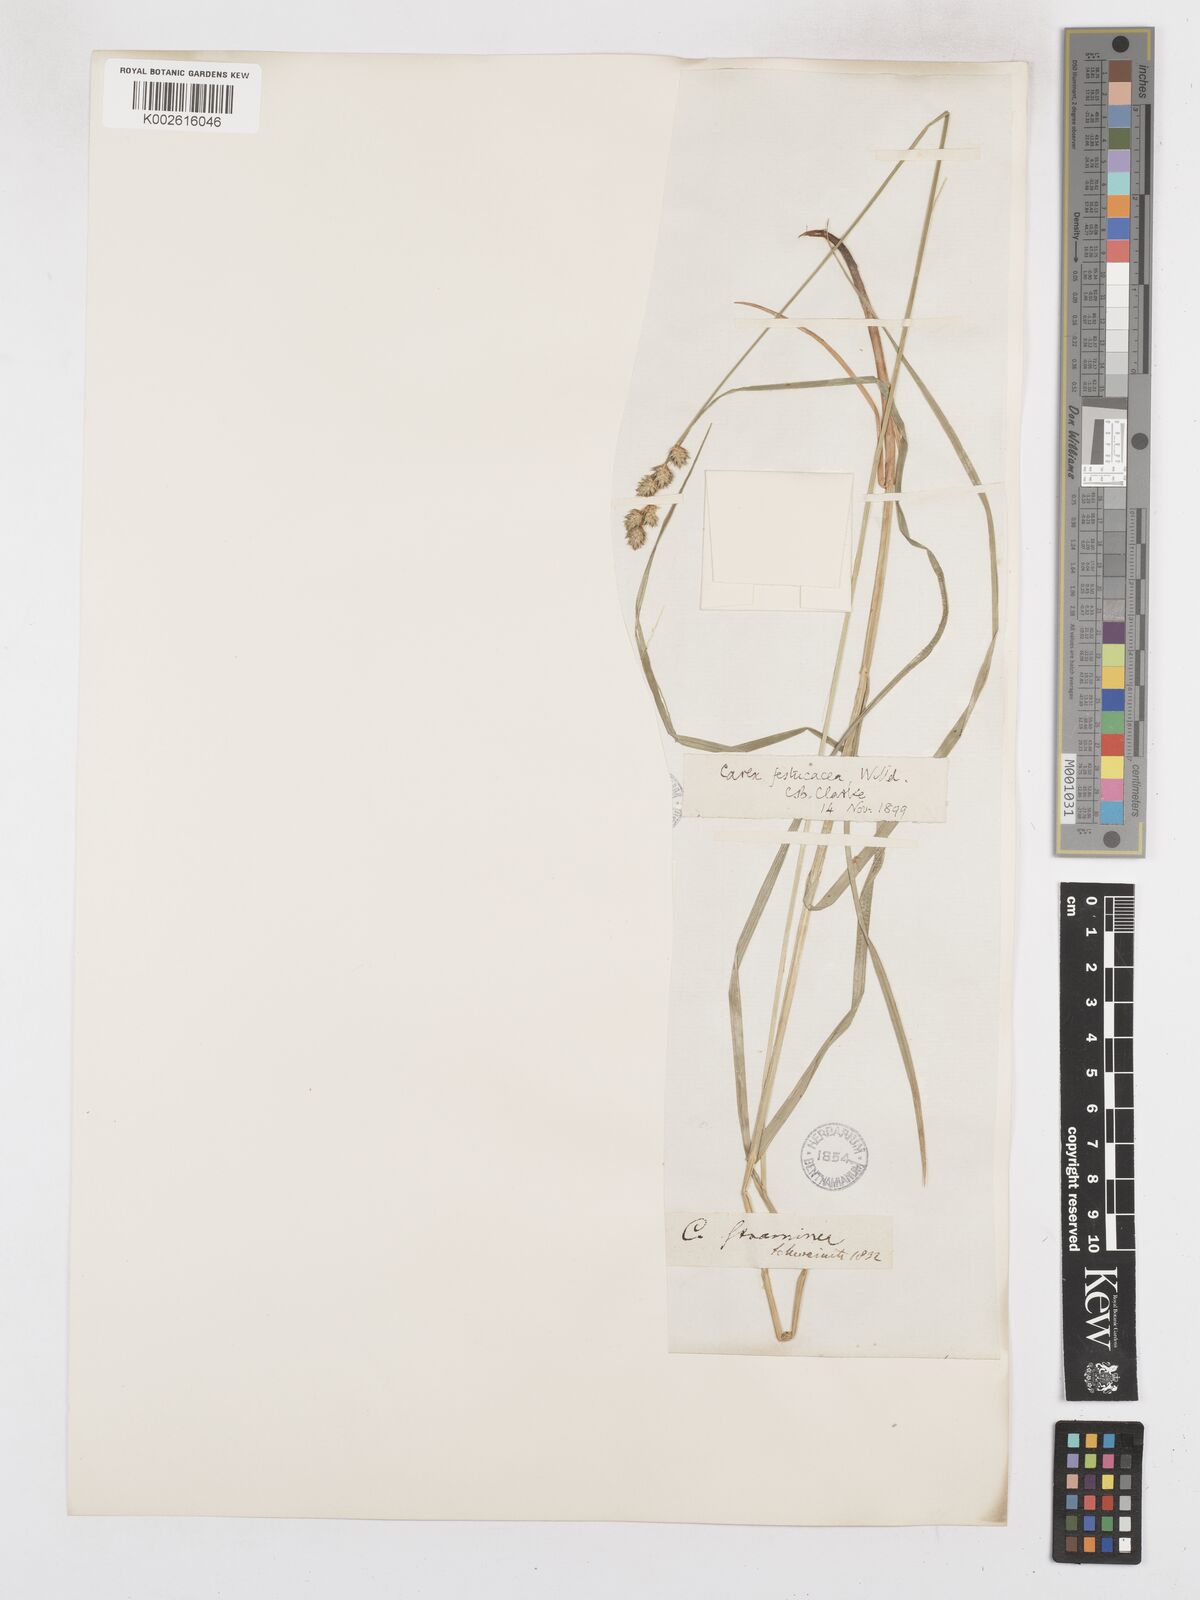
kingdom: Plantae
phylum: Tracheophyta
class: Liliopsida
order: Poales
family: Cyperaceae
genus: Carex
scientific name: Carex festucacea
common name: Fescue oval sedge
